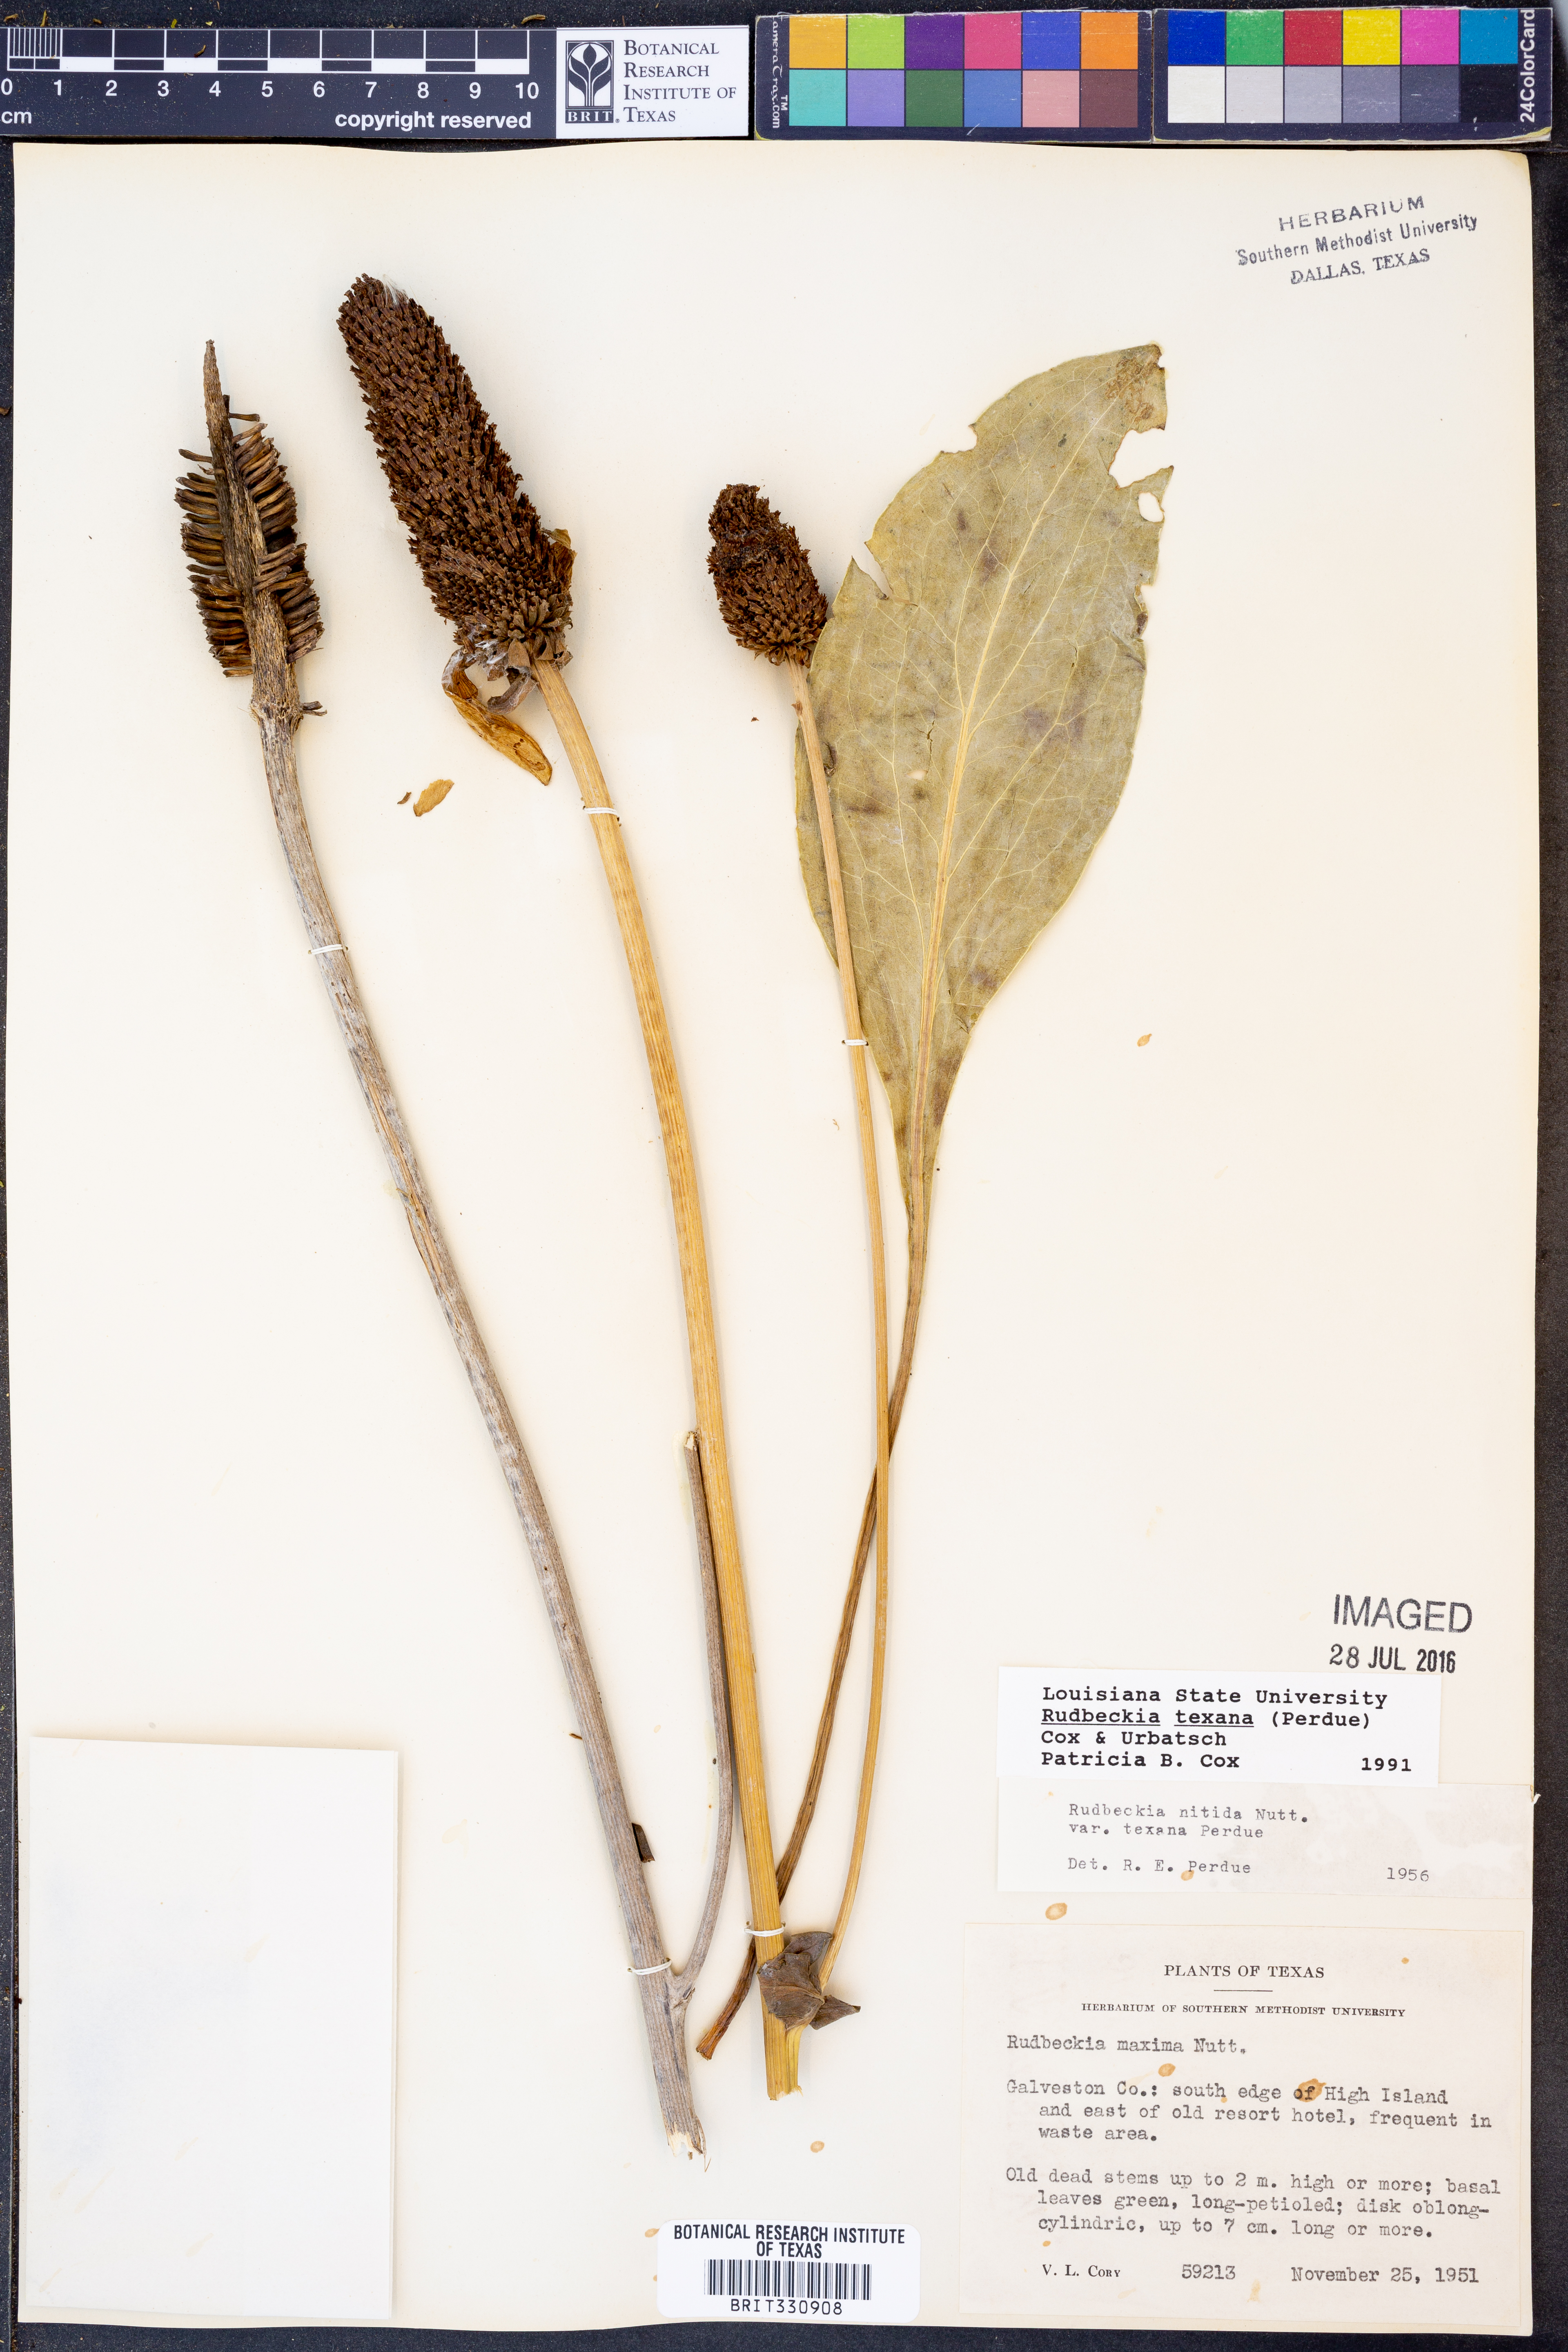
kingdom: Plantae
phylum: Tracheophyta
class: Magnoliopsida
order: Asterales
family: Asteraceae
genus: Rudbeckia
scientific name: Rudbeckia texana
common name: Texas coneflower
